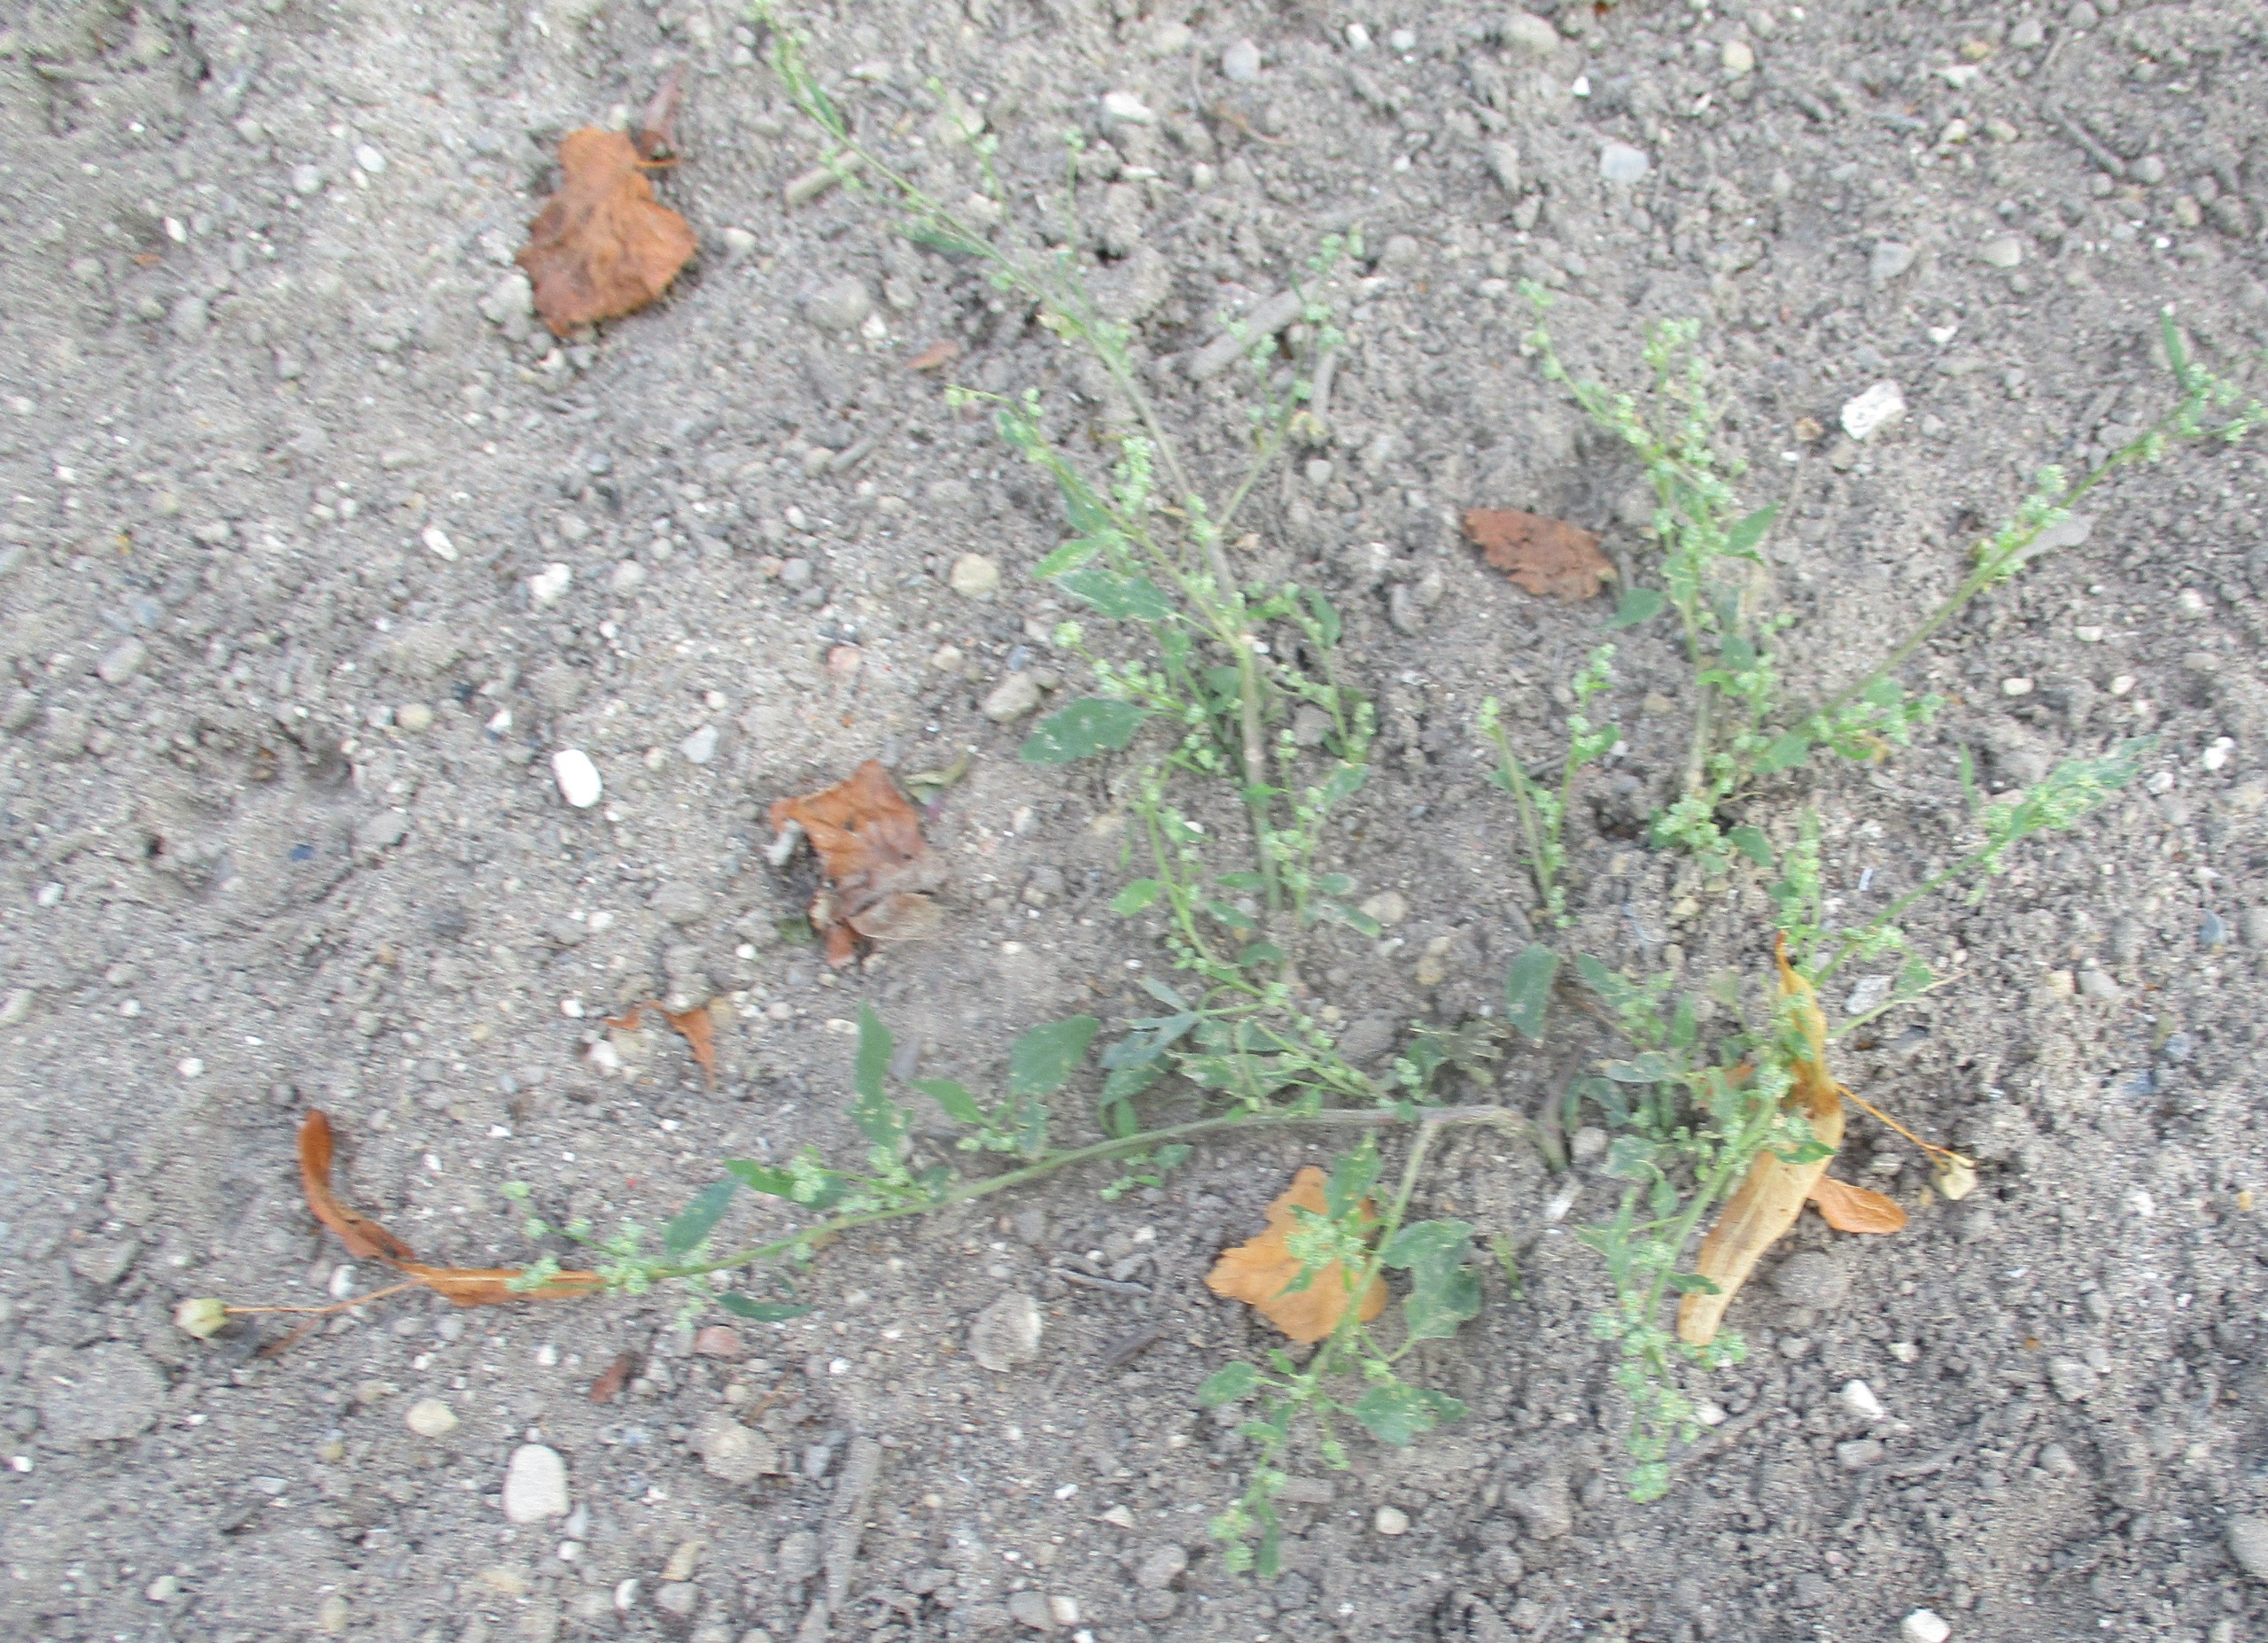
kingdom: Plantae
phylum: Tracheophyta
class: Magnoliopsida
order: Caryophyllales
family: Amaranthaceae
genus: Chenopodium
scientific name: Chenopodium album
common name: Hvidmelet gåsefod
